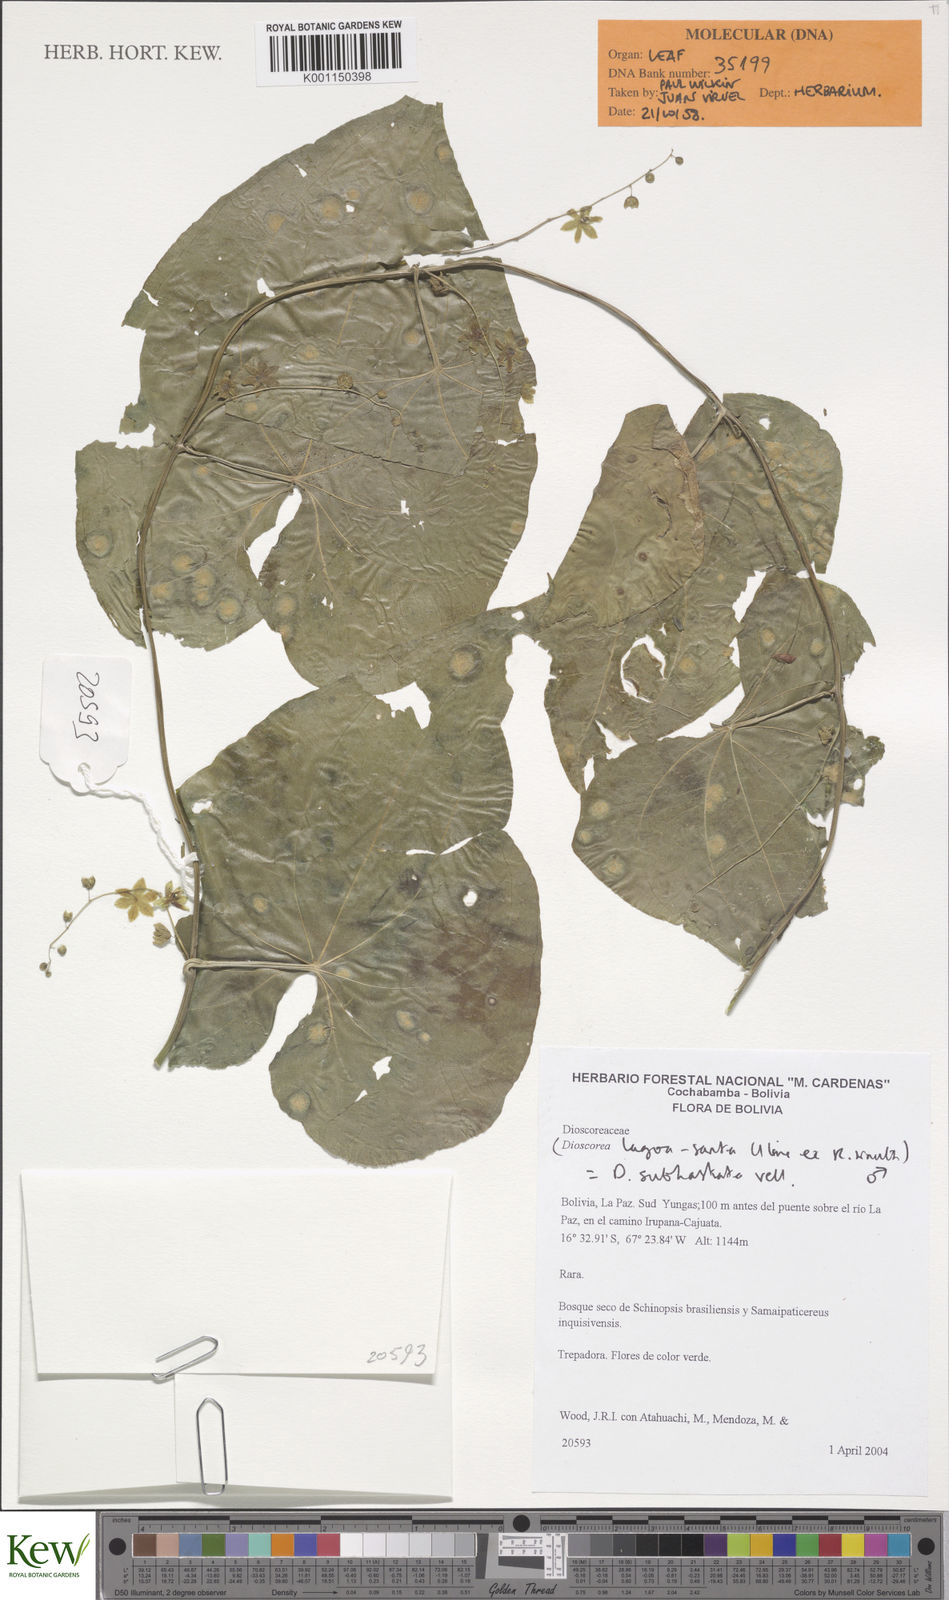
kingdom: Plantae
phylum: Tracheophyta
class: Liliopsida
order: Dioscoreales
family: Dioscoreaceae
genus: Dioscorea
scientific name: Dioscorea subhastata
